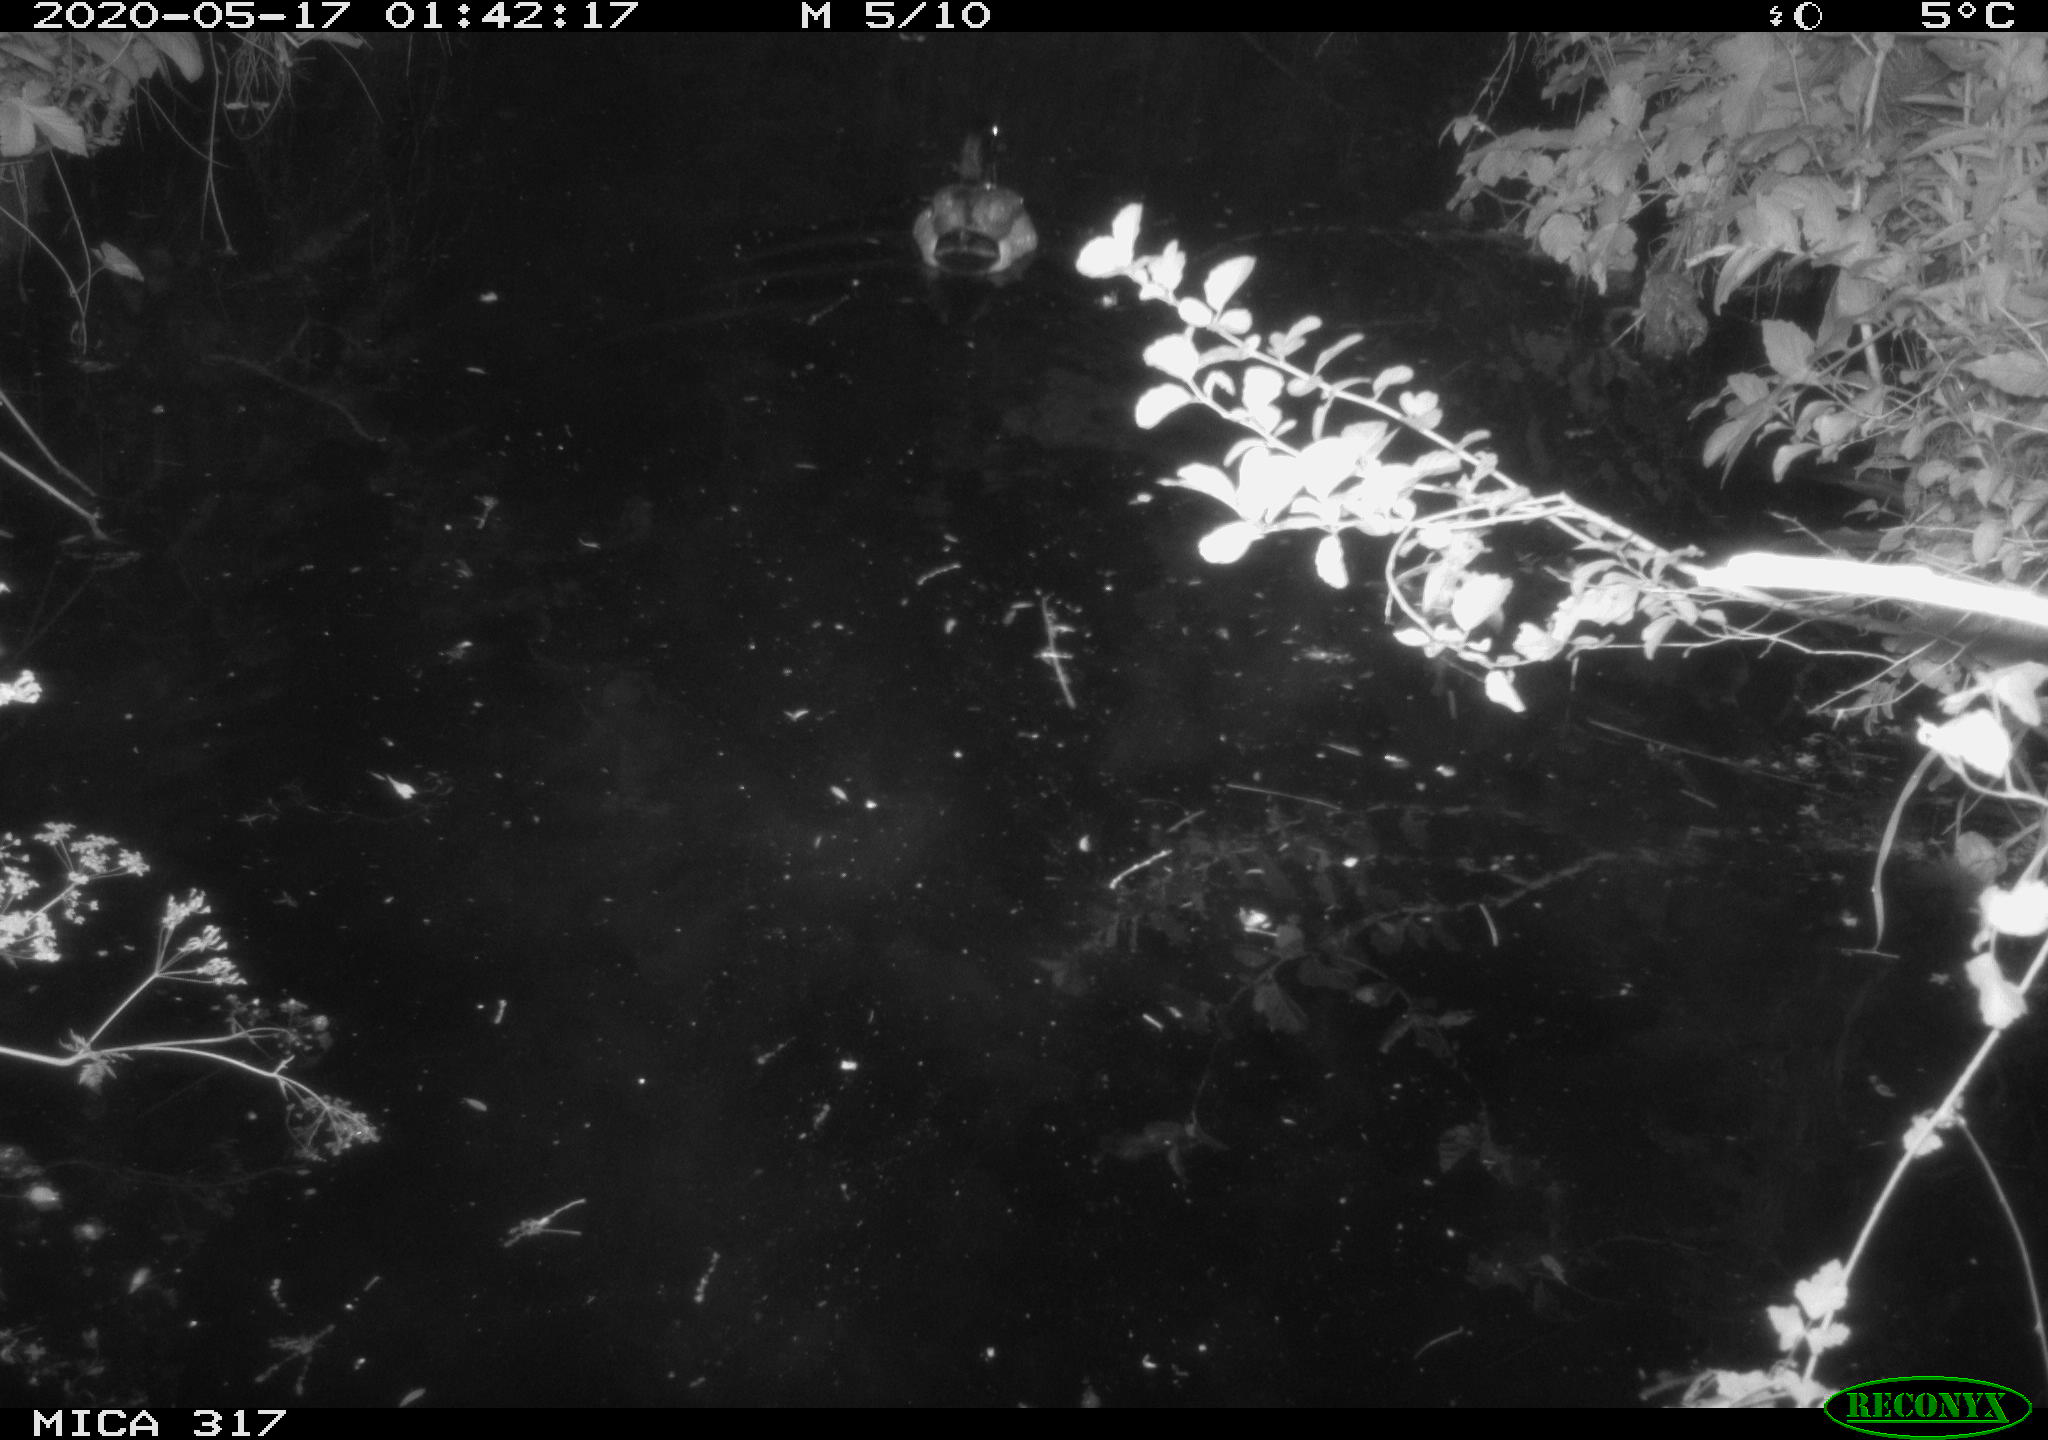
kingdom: Animalia
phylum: Chordata
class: Aves
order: Anseriformes
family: Anatidae
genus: Anas
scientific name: Anas platyrhynchos
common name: Mallard
